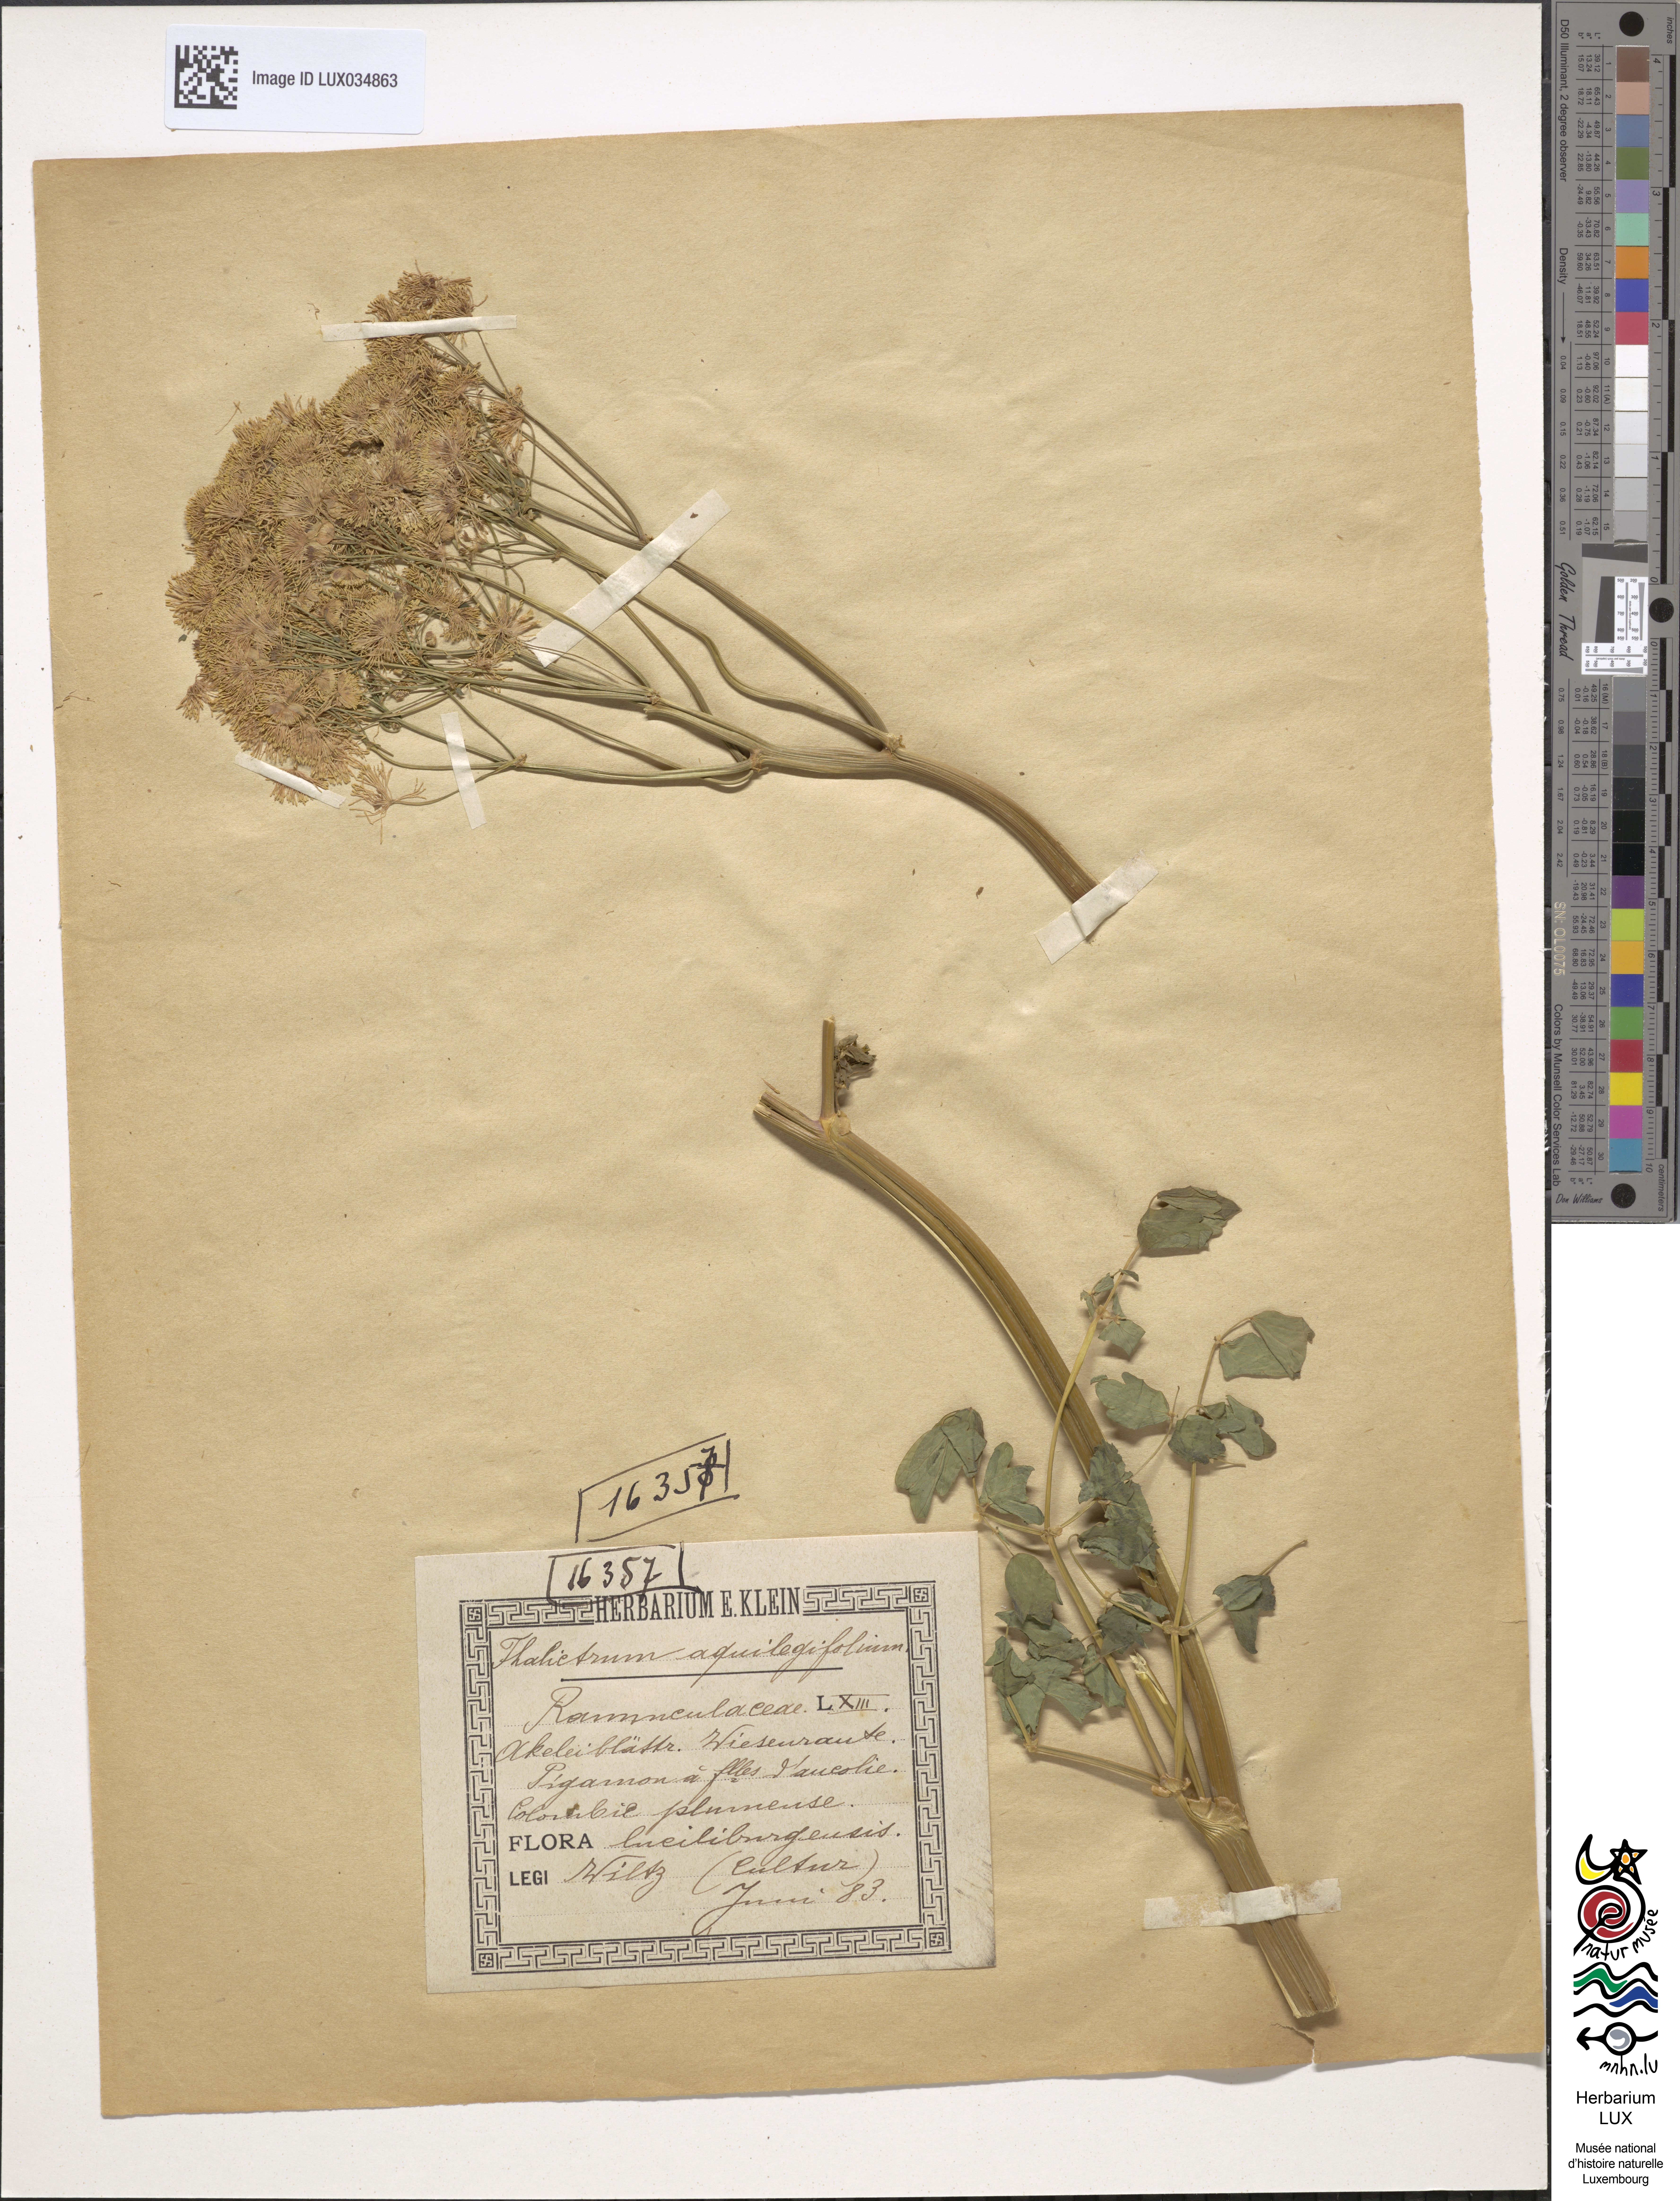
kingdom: Plantae
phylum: Tracheophyta
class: Magnoliopsida
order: Ranunculales
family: Ranunculaceae
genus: Thalictrum
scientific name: Thalictrum aquilegiifolium
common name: French meadow-rue
